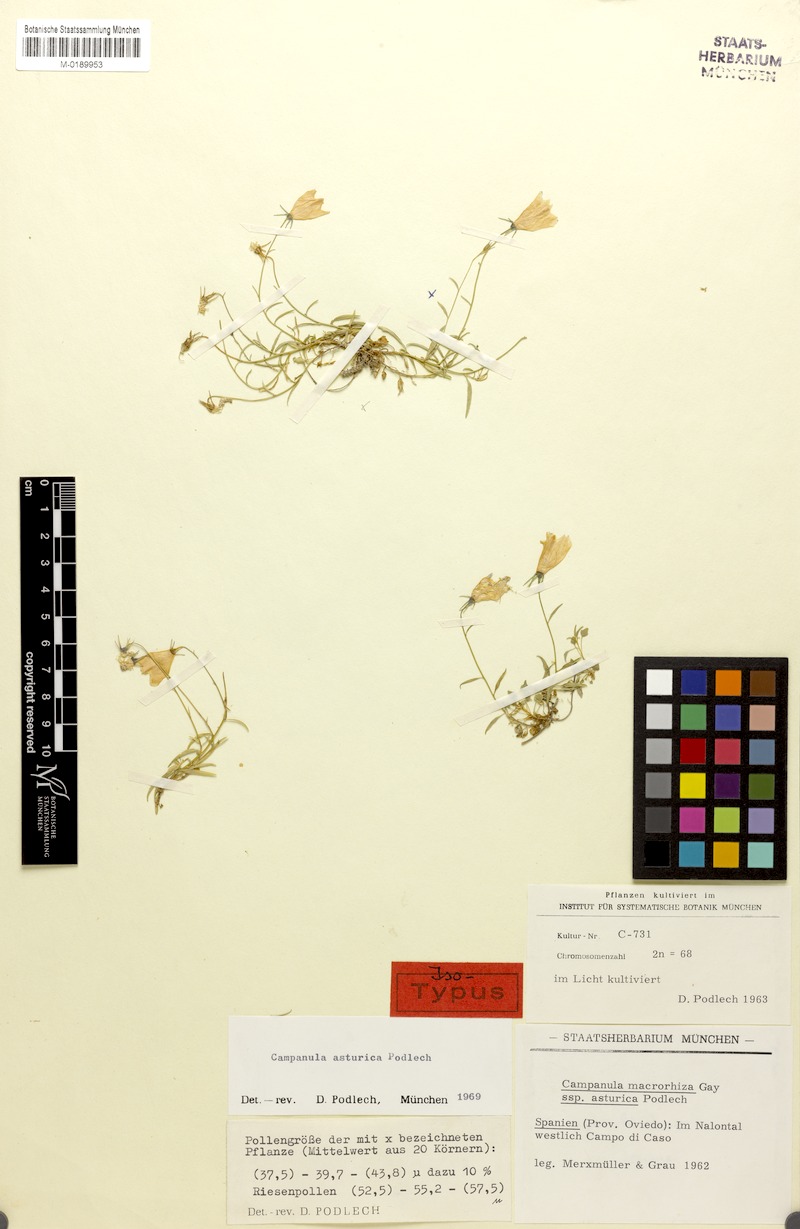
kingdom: Plantae
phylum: Tracheophyta
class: Magnoliopsida
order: Asterales
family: Campanulaceae
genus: Campanula
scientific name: Campanula rotundifolia
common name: Harebell
